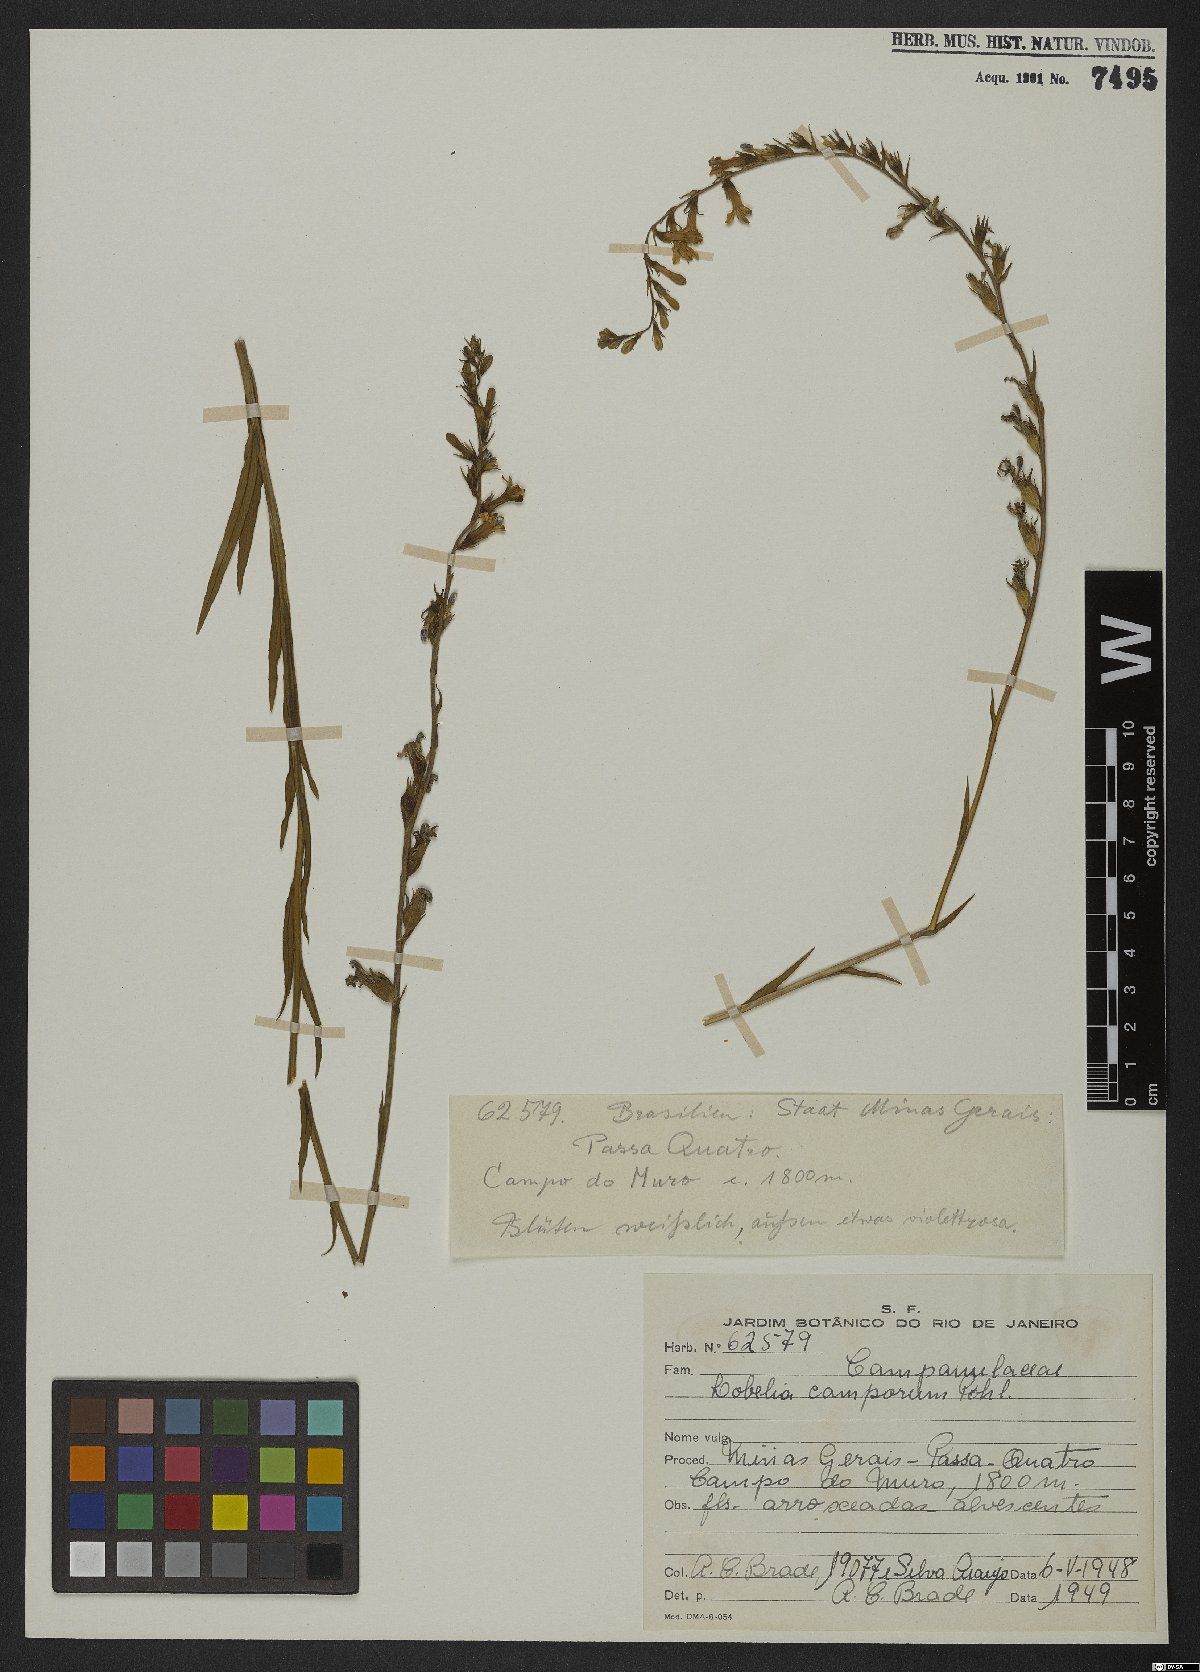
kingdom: Plantae
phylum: Tracheophyta
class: Magnoliopsida
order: Asterales
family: Campanulaceae
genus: Lobelia
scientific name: Lobelia camporum
